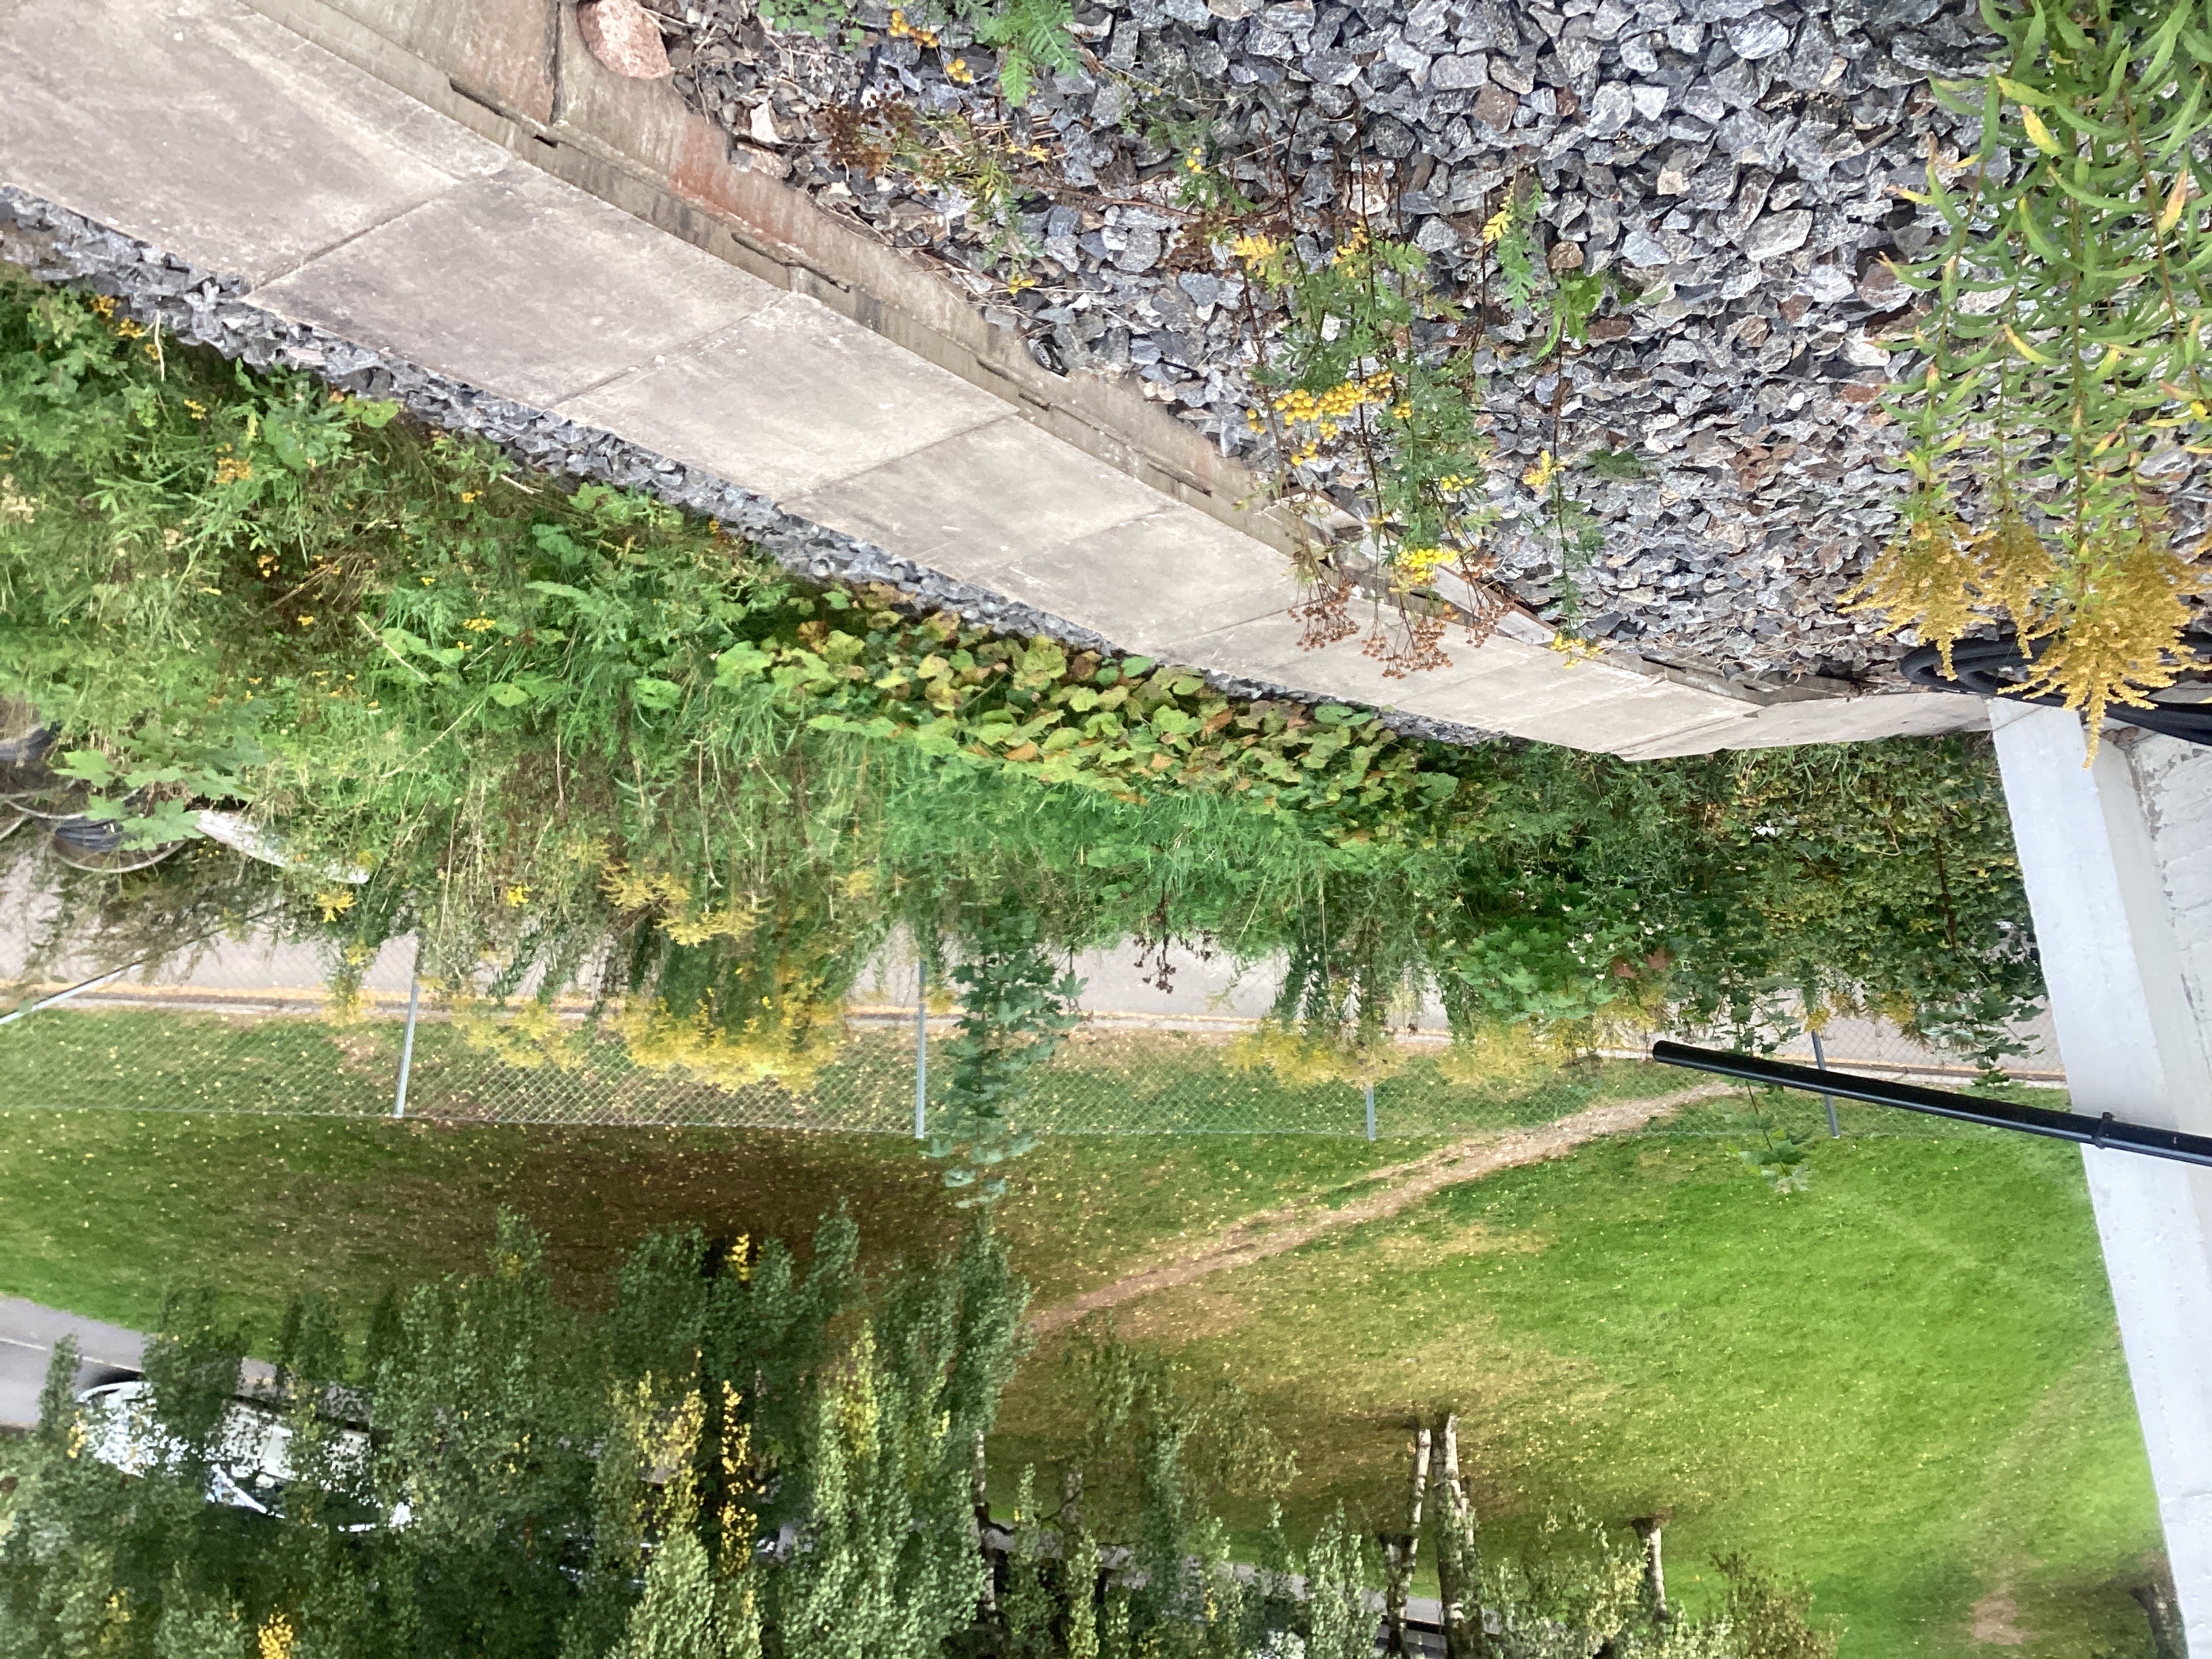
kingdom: Plantae
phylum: Tracheophyta
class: Magnoliopsida
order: Asterales
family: Asteraceae
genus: Solidago
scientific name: Solidago canadensis
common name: kanadagullris
